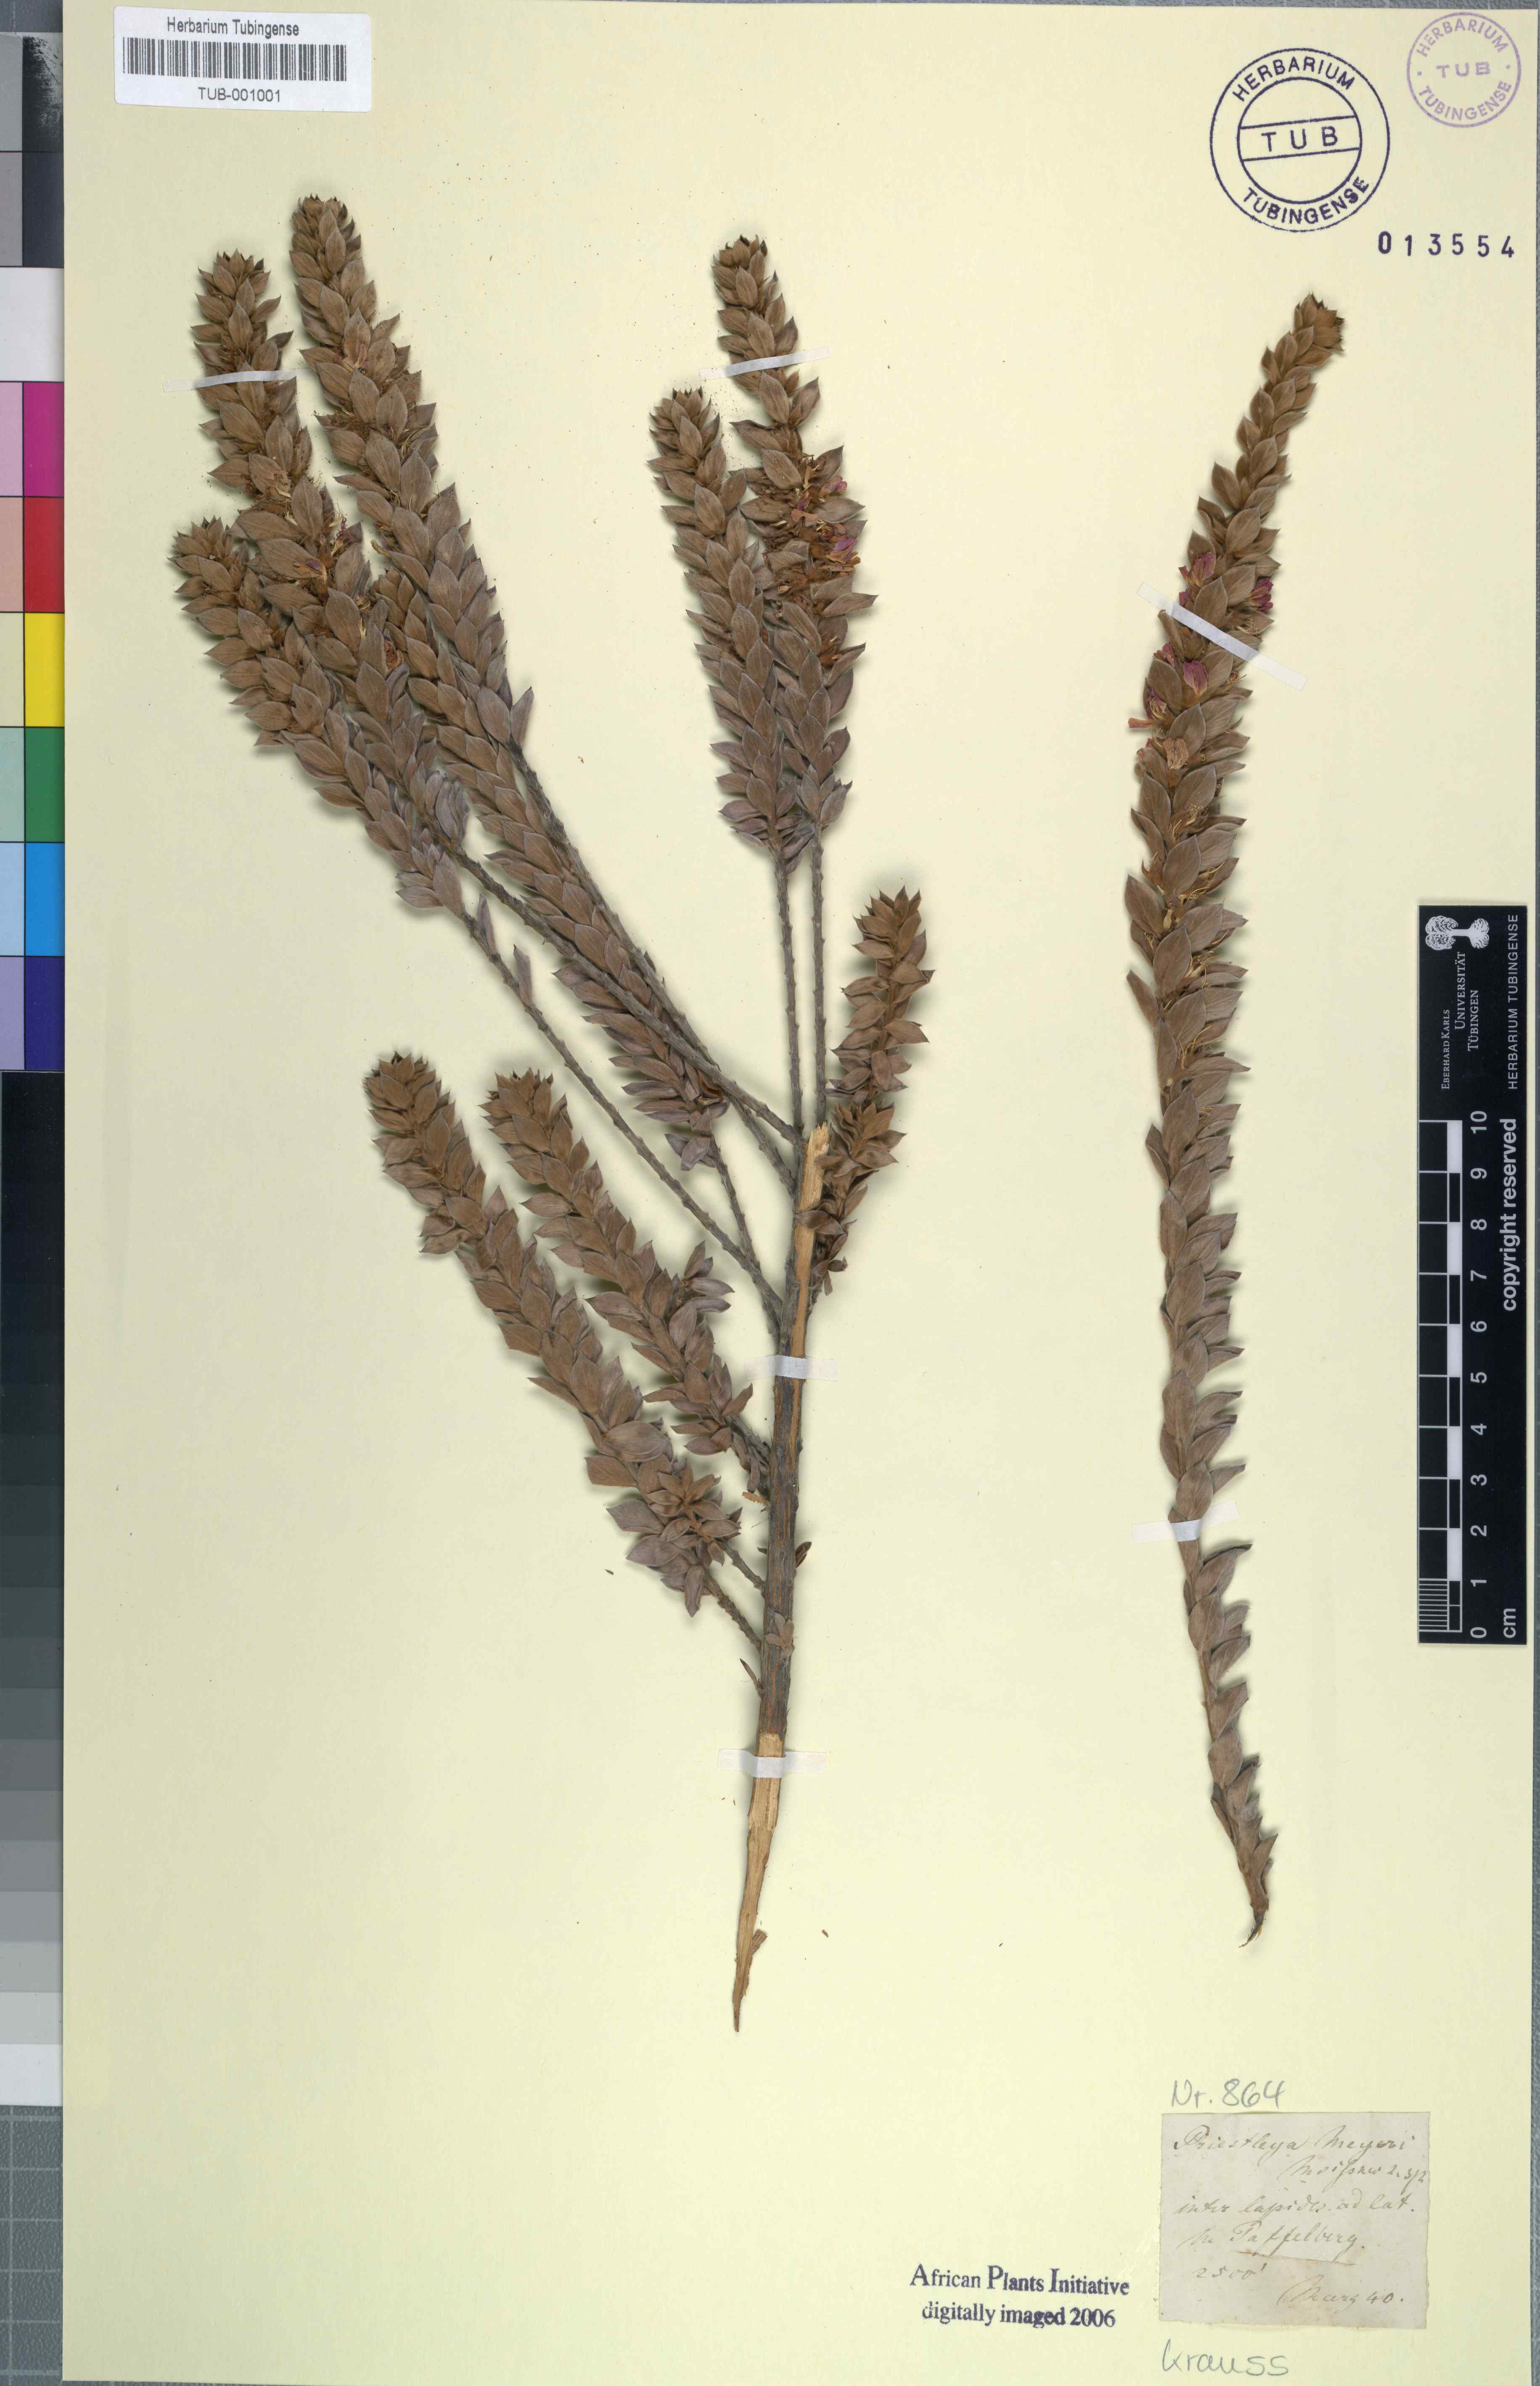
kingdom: Plantae
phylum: Tracheophyta
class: Magnoliopsida
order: Fabales
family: Fabaceae
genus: Amphithalea
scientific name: Amphithalea imbricata
